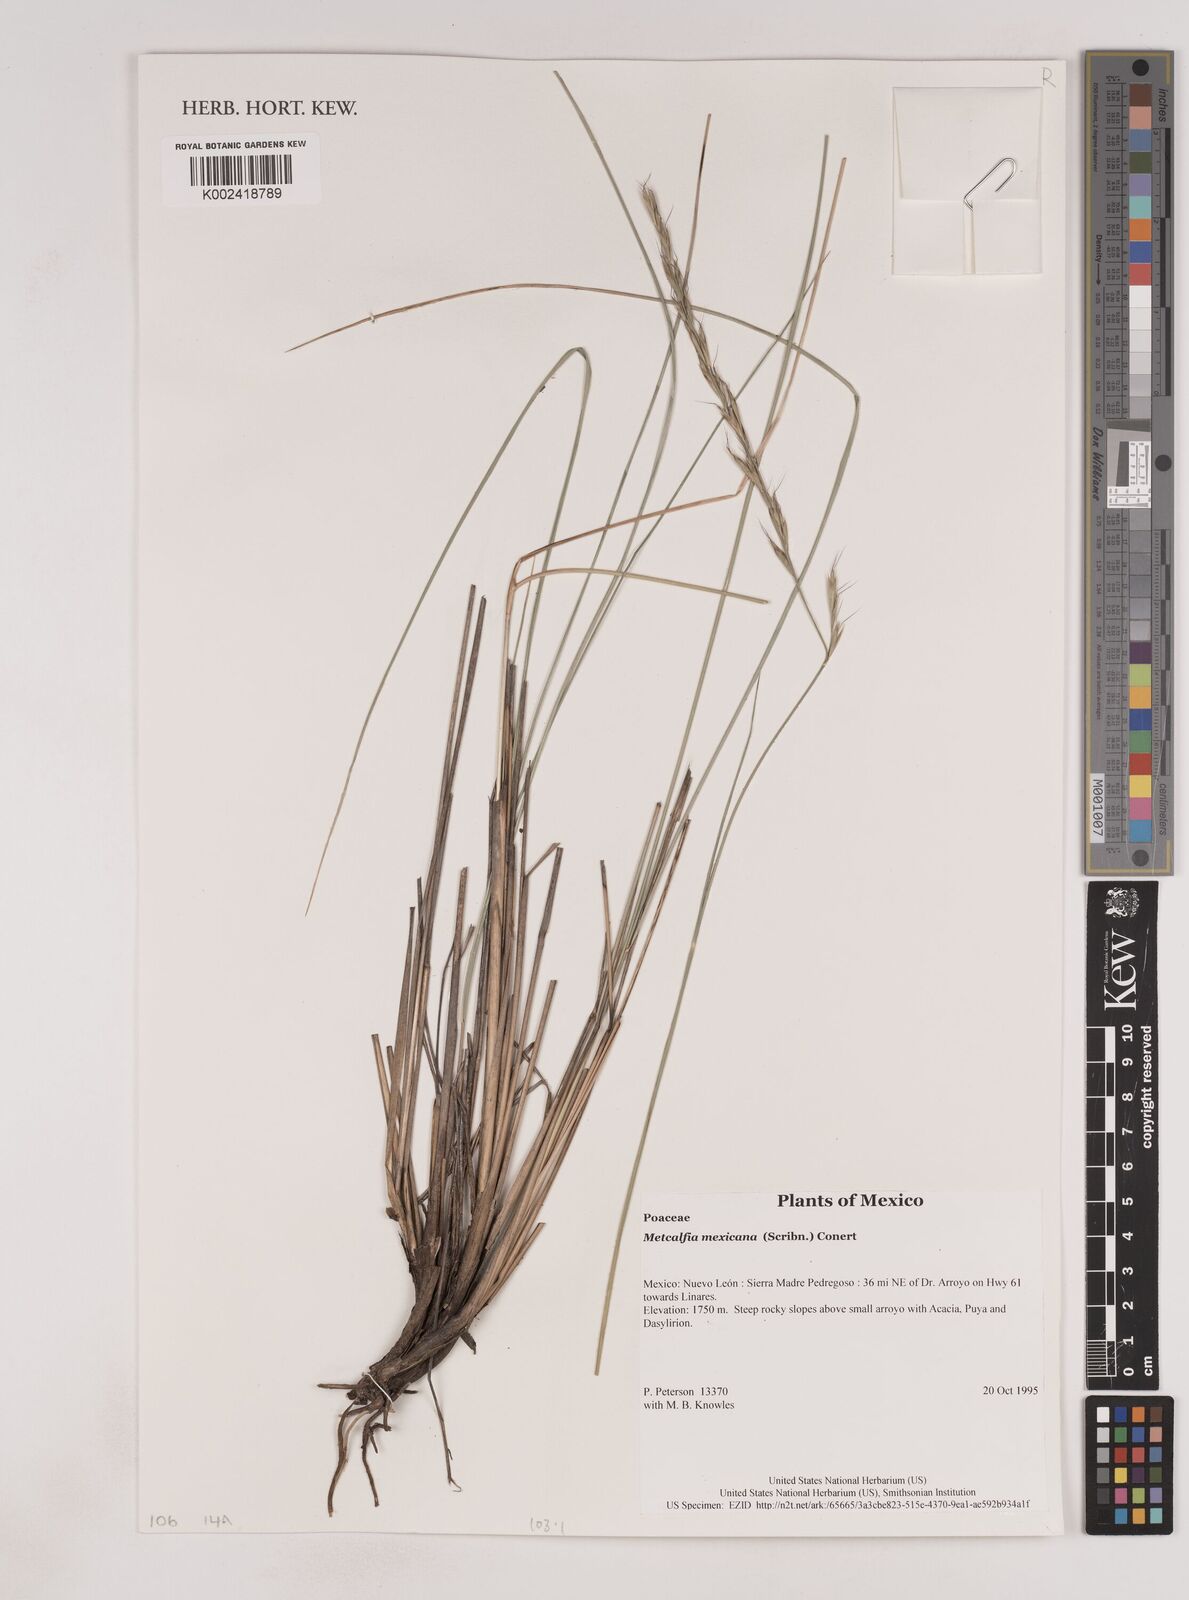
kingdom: Plantae
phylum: Tracheophyta
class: Liliopsida
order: Poales
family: Poaceae
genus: Metcalfia
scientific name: Metcalfia mexicana
